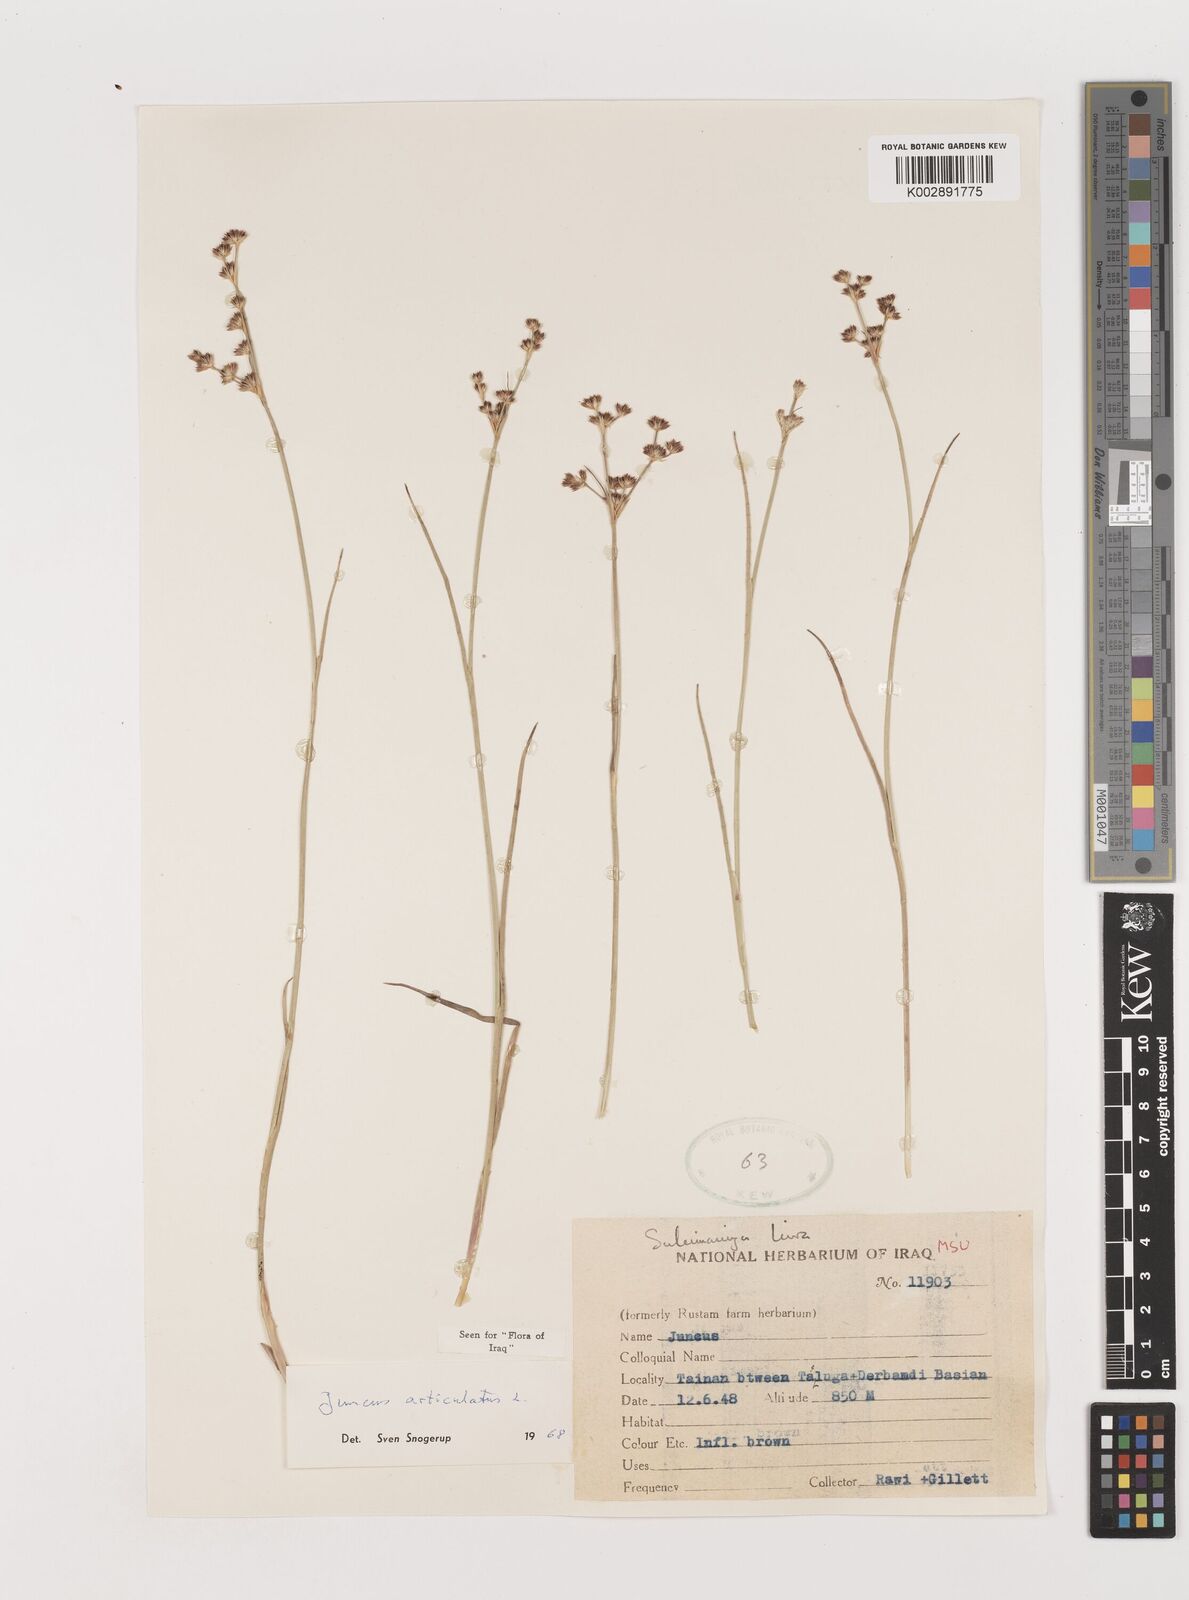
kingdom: Plantae
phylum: Tracheophyta
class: Liliopsida
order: Poales
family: Juncaceae
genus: Juncus
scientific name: Juncus articulatus
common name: Jointed rush
